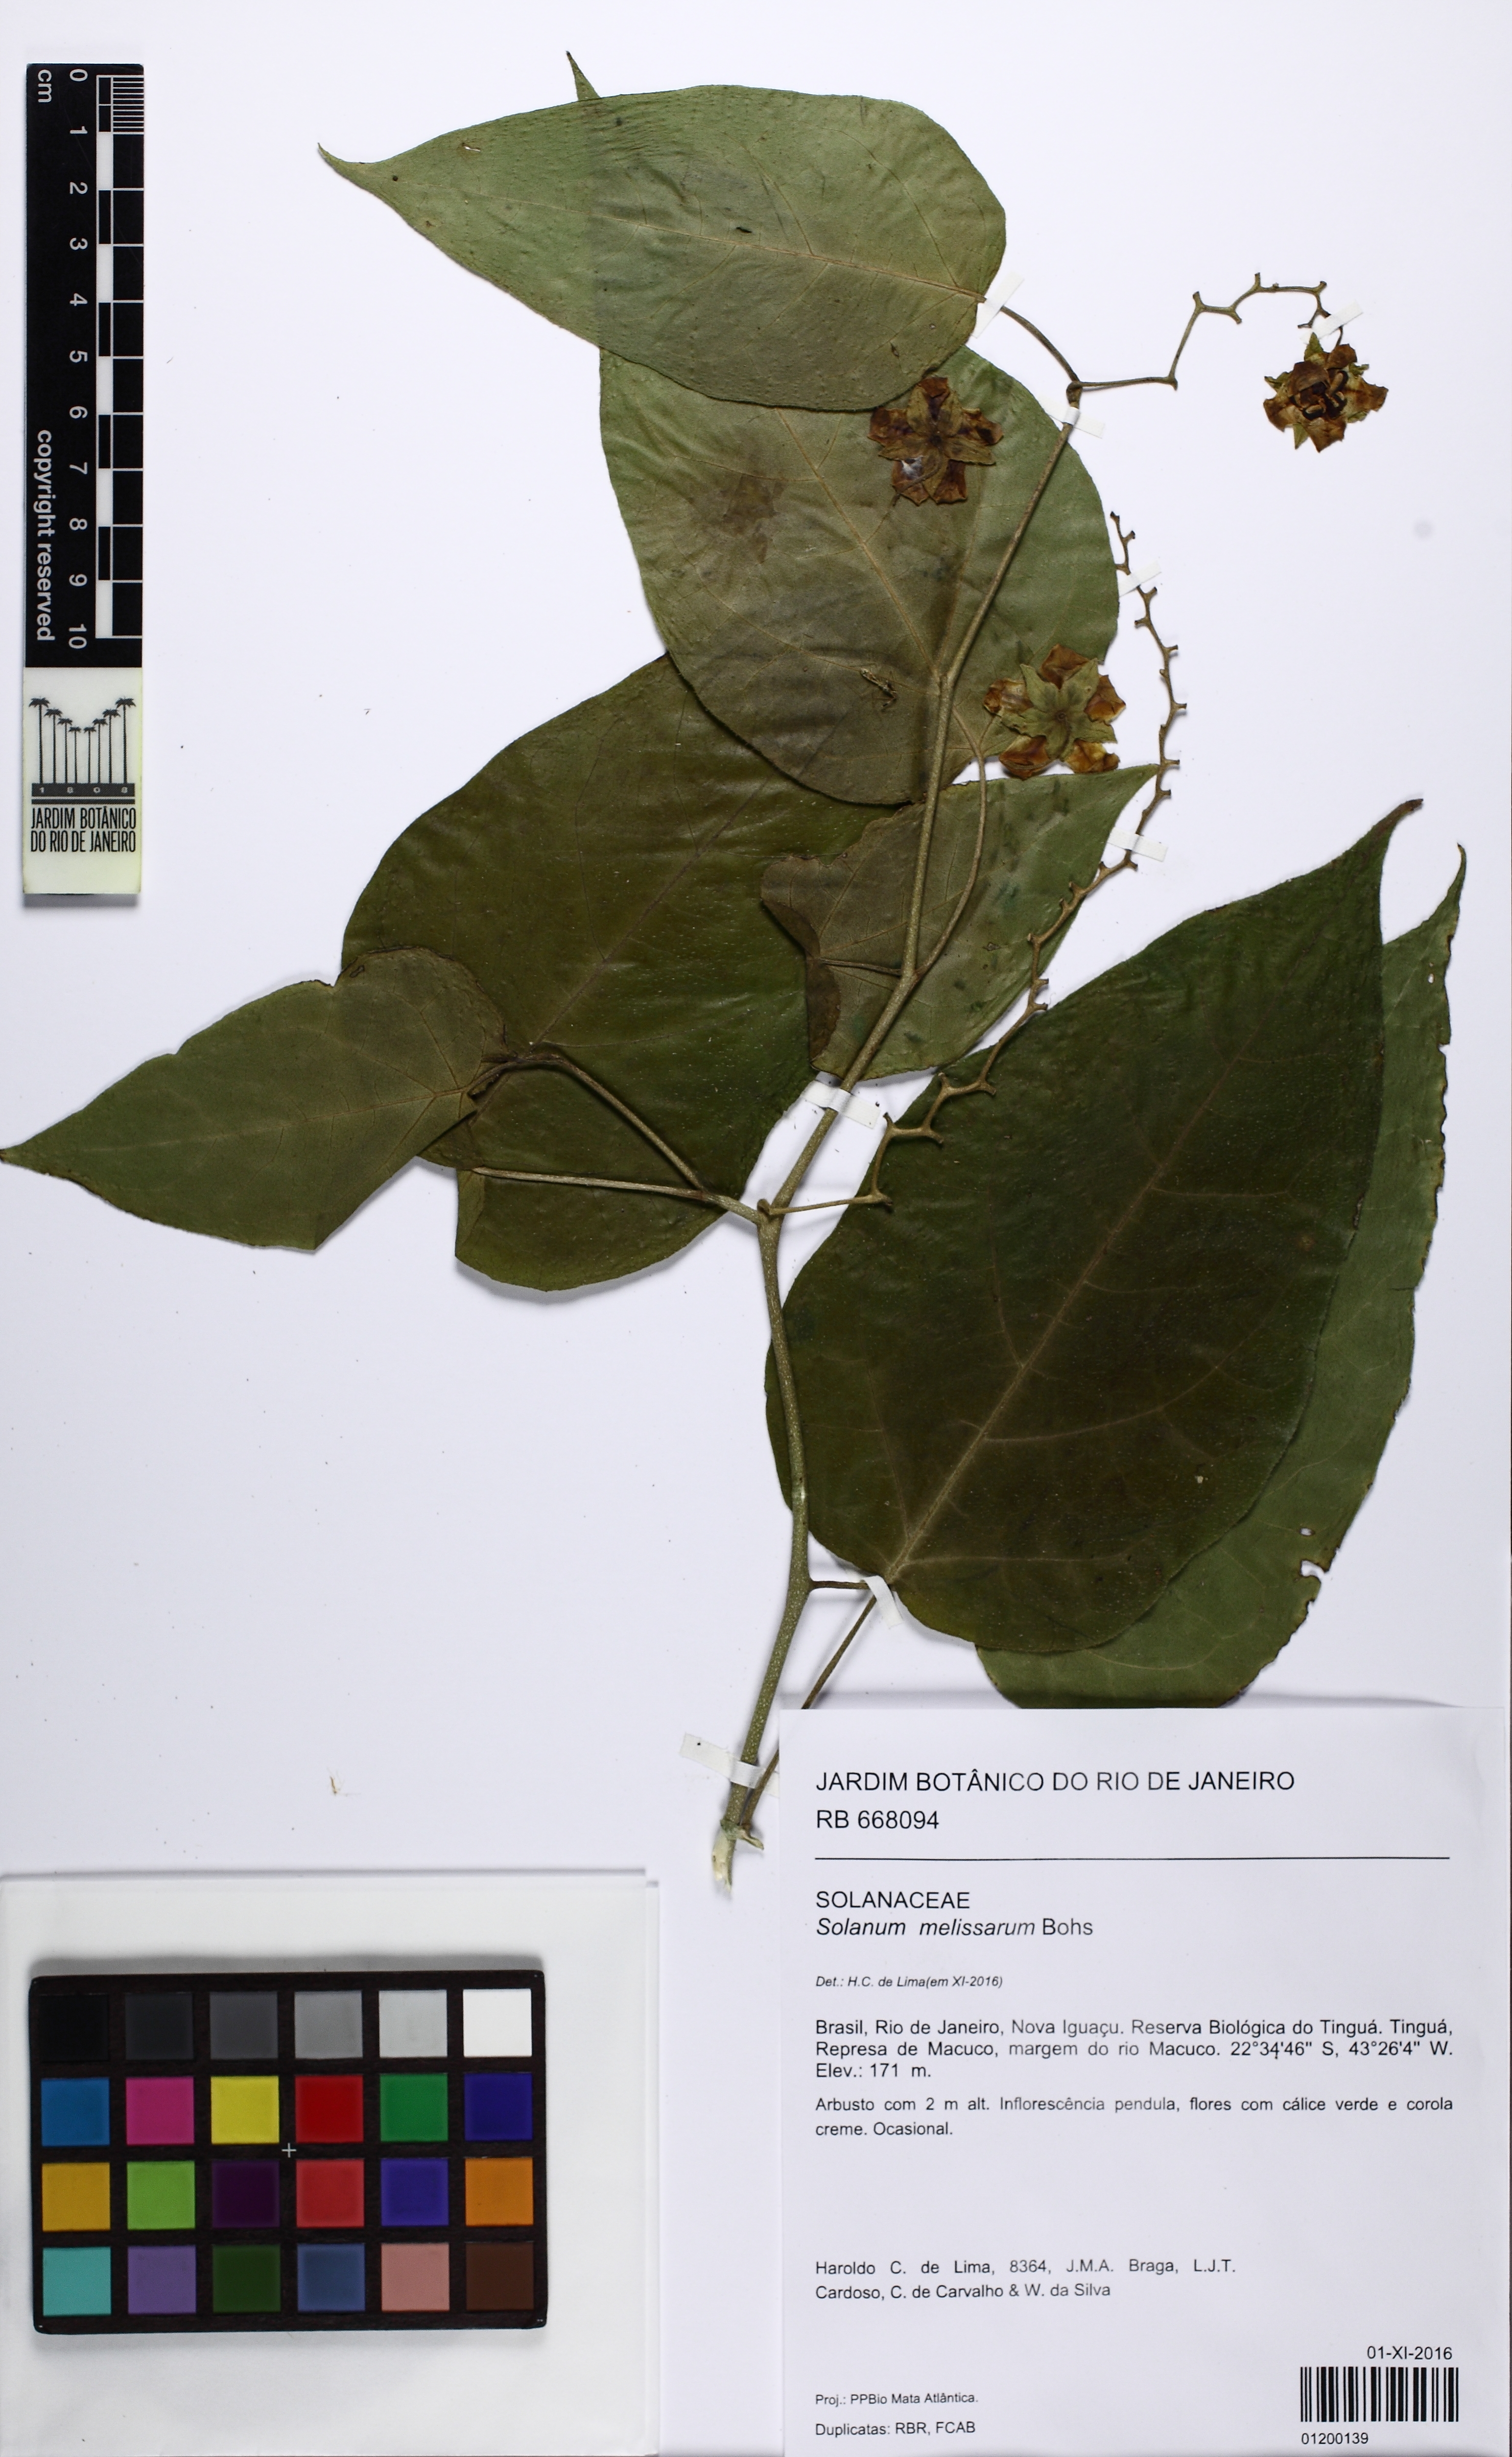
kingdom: Plantae
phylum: Tracheophyta
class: Magnoliopsida
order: Solanales
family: Solanaceae
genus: Solanum
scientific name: Solanum latiflorum
